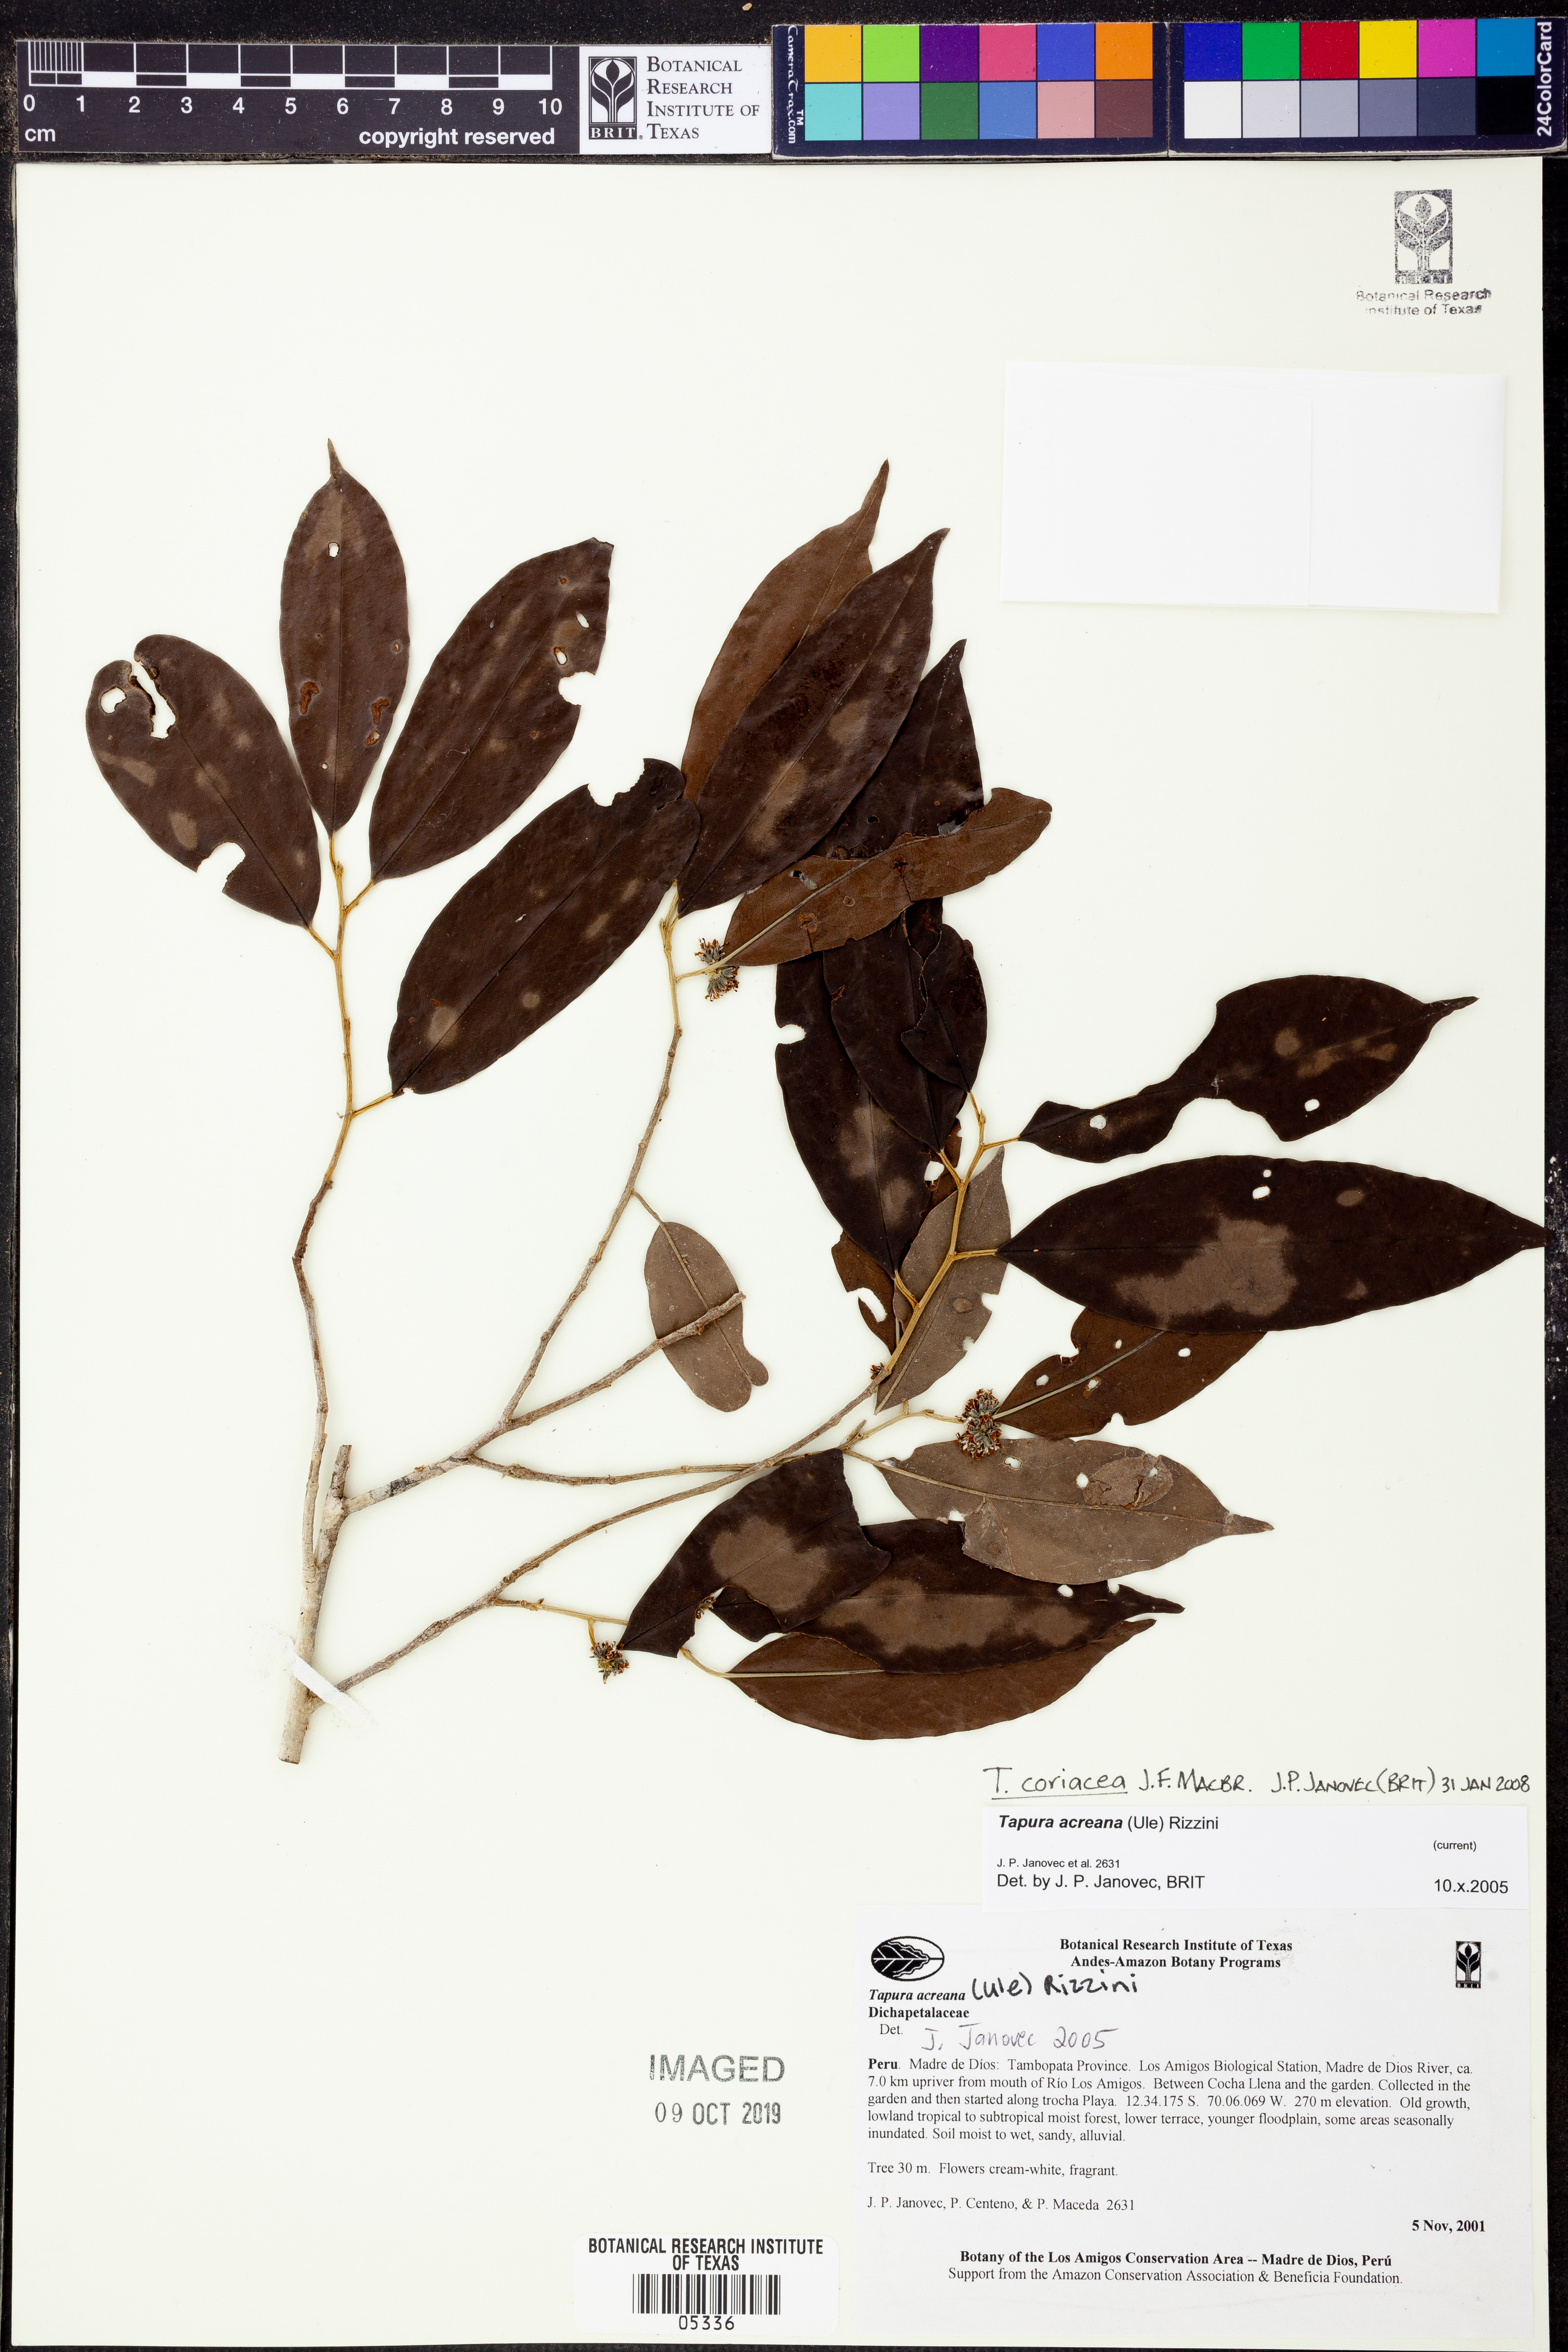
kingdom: Plantae
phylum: Tracheophyta
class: Magnoliopsida
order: Malpighiales
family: Dichapetalaceae
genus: Tapura
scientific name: Tapura
